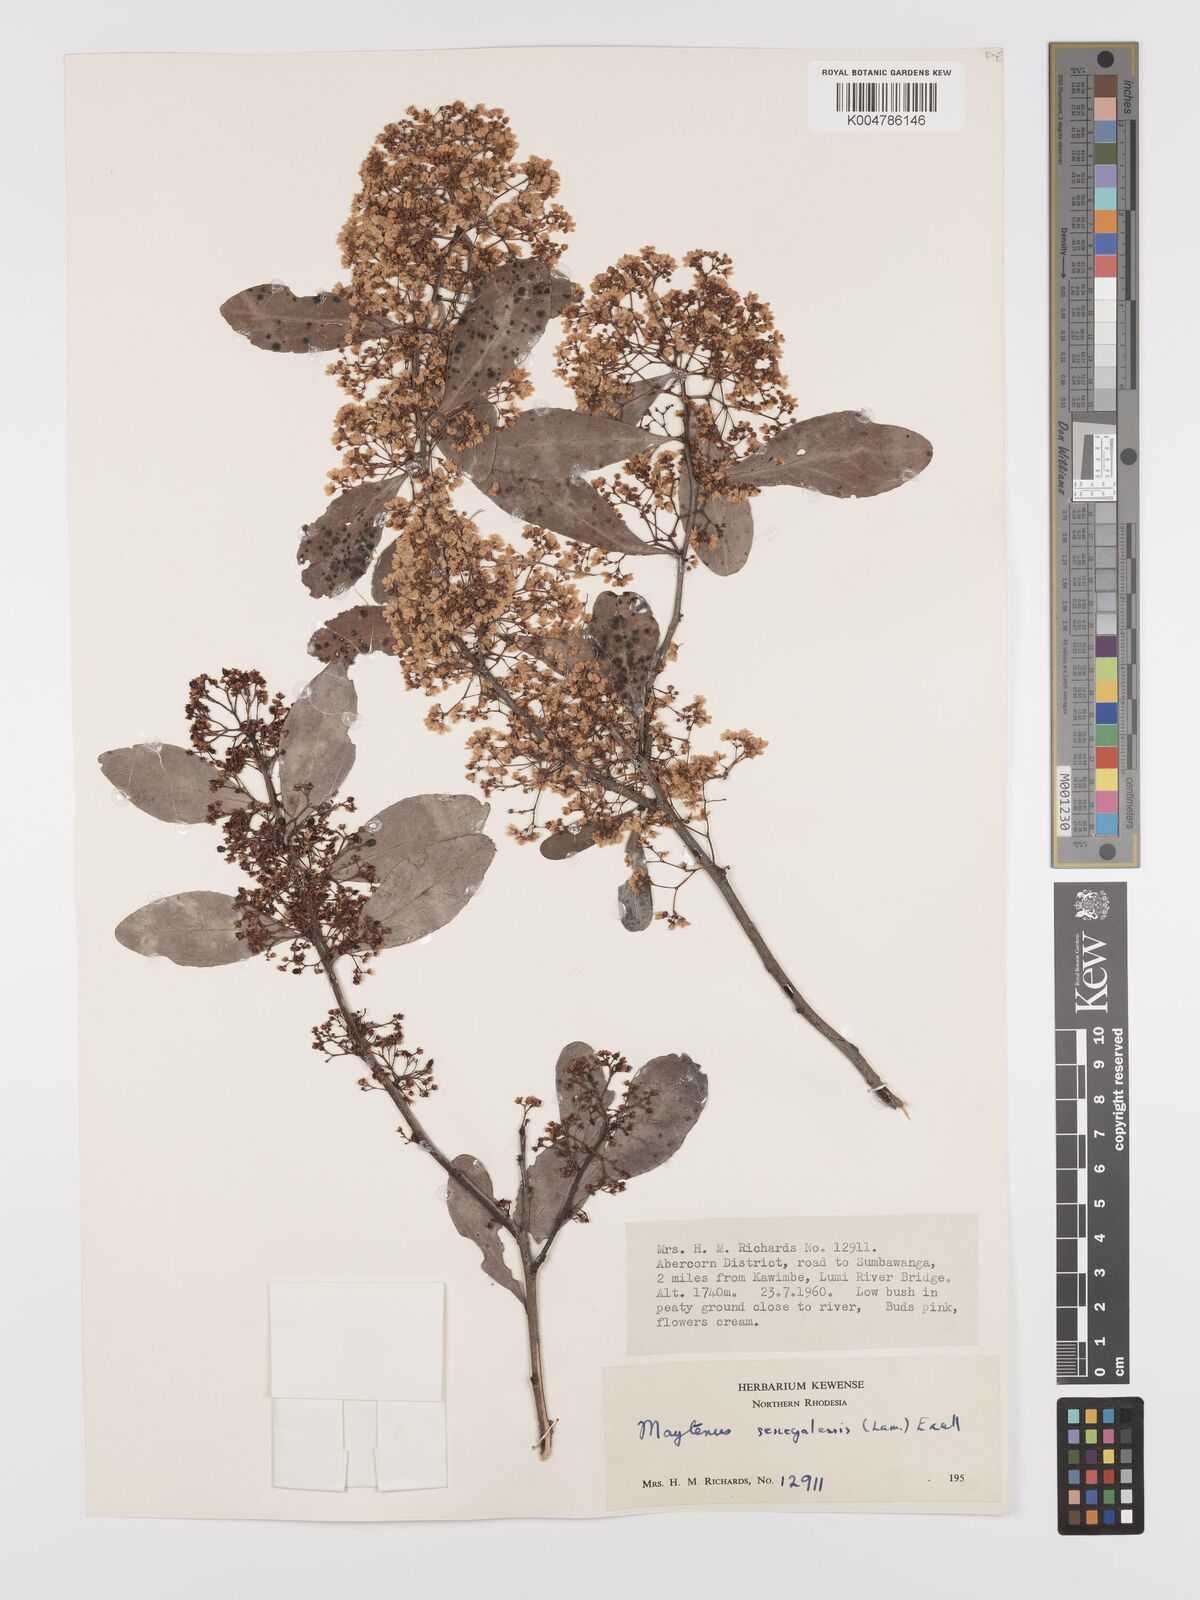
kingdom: Plantae
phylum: Tracheophyta
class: Magnoliopsida
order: Celastrales
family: Celastraceae
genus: Gymnosporia
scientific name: Gymnosporia senegalensis
